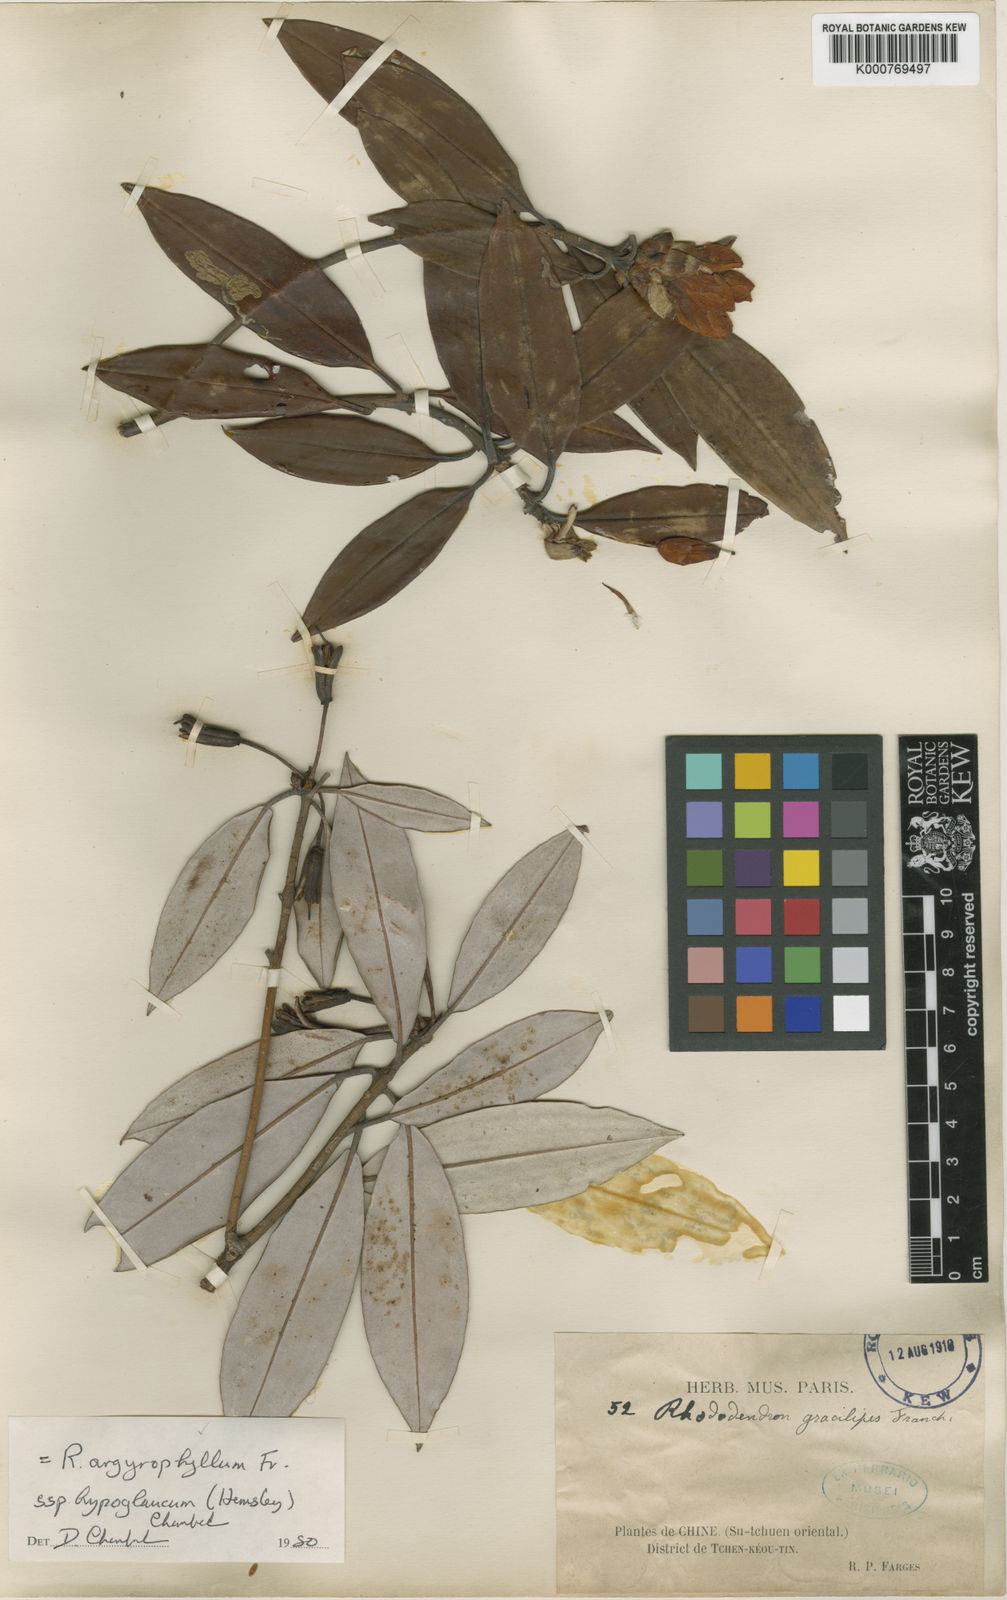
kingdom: Plantae
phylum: Tracheophyta
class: Magnoliopsida
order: Ericales
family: Ericaceae
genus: Rhododendron
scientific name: Rhododendron hypoglaucum
